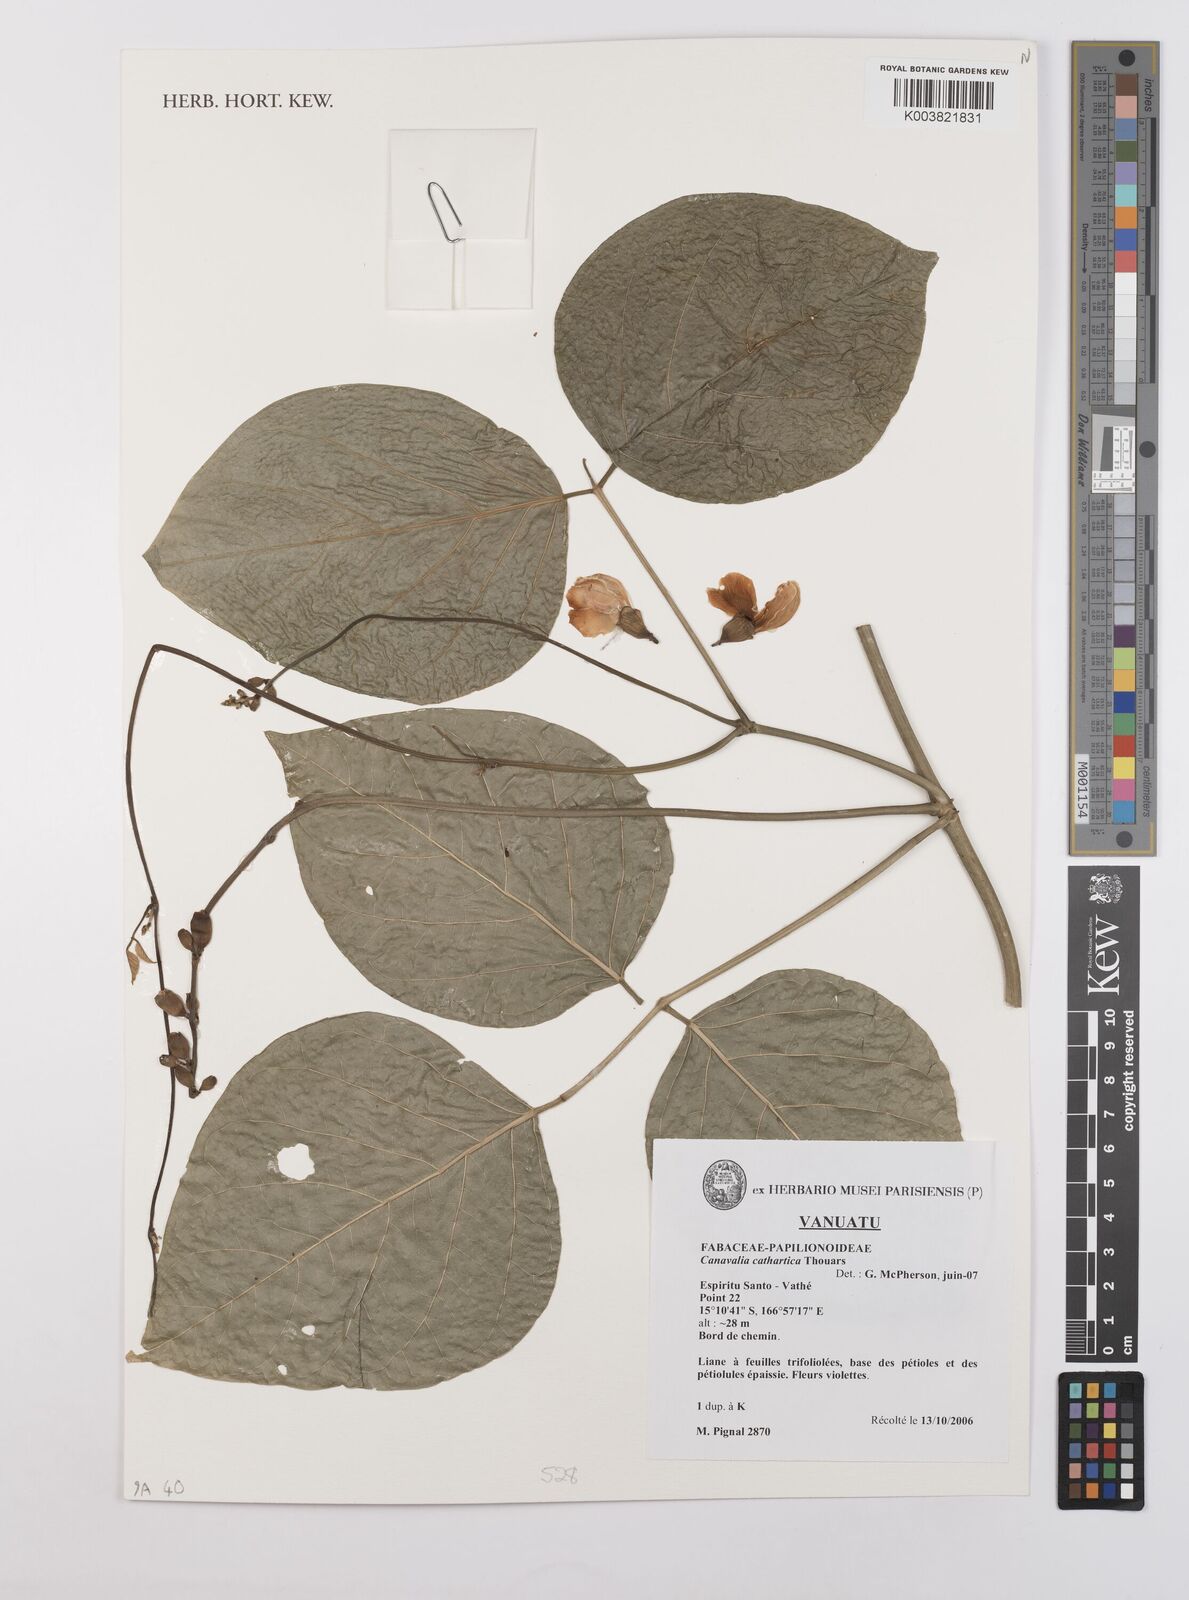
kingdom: Plantae
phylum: Tracheophyta
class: Magnoliopsida
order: Fabales
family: Fabaceae
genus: Canavalia
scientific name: Canavalia cathartica
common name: Maunaloa
